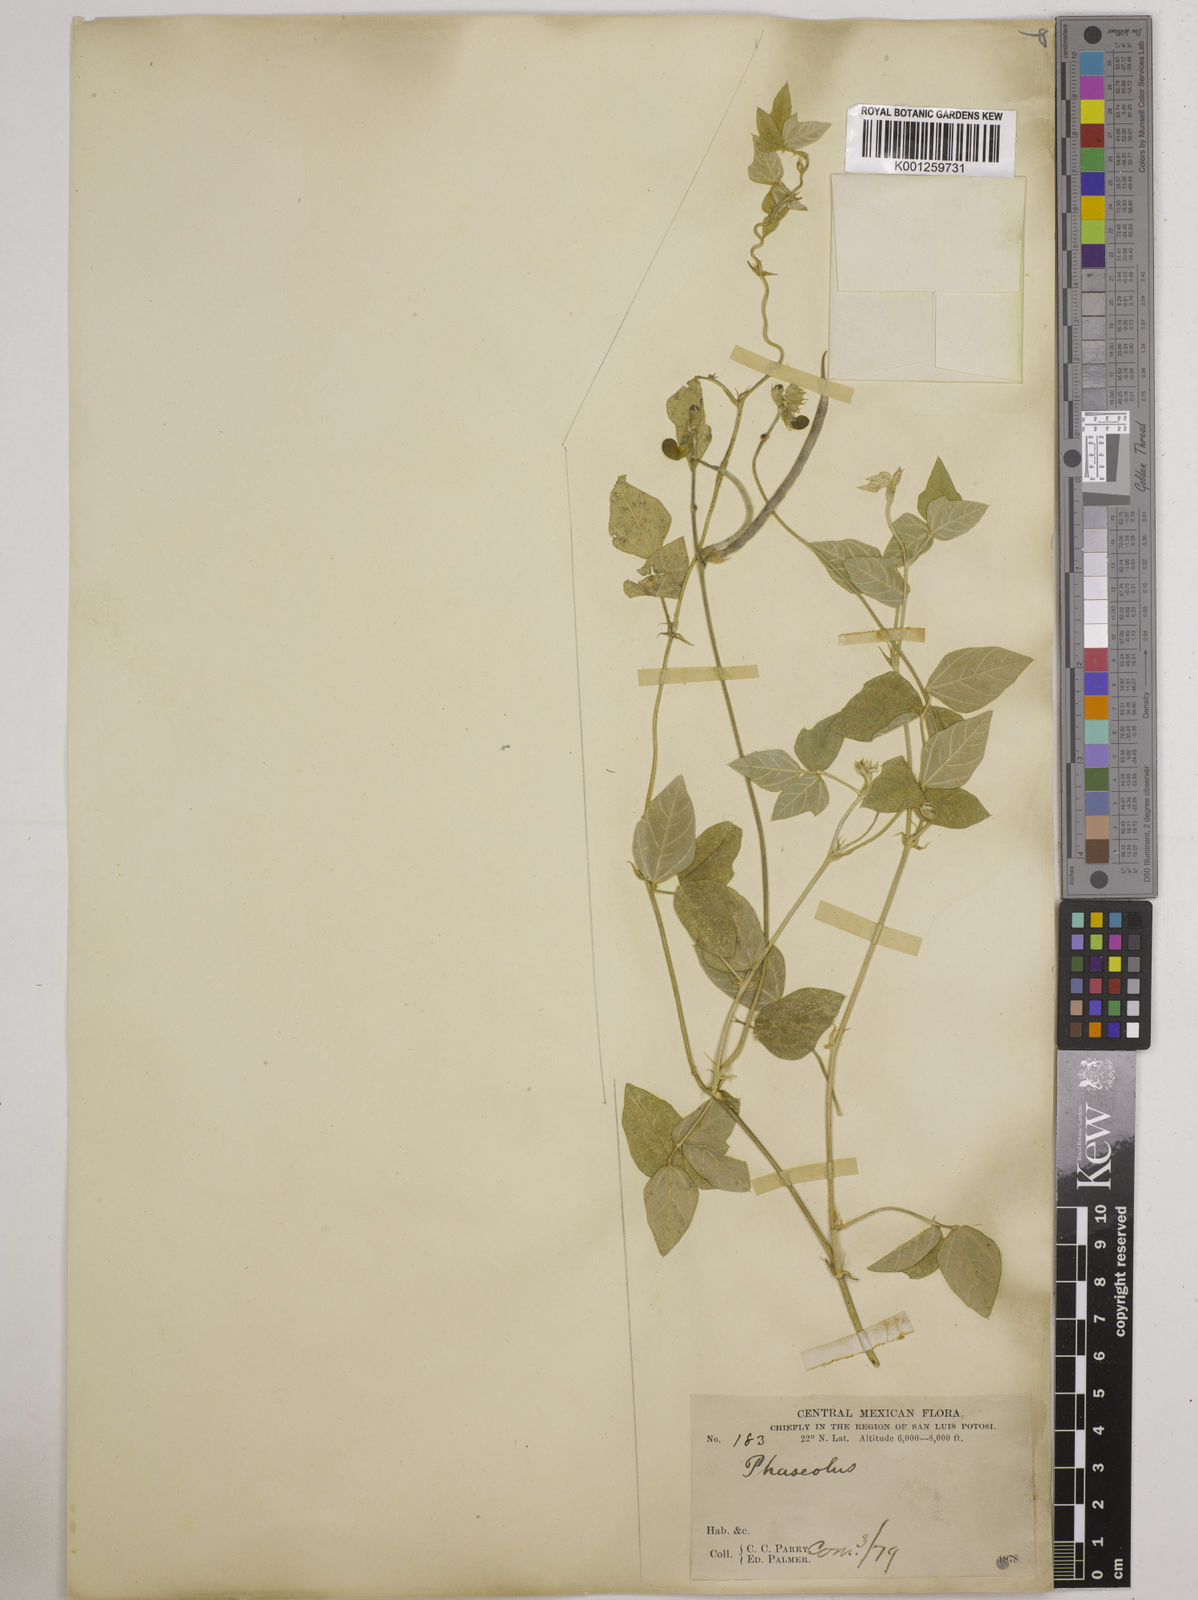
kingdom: Plantae
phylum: Tracheophyta
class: Magnoliopsida
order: Fabales
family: Fabaceae
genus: Macroptilium
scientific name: Macroptilium atropurpureum
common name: Purple bushbean
